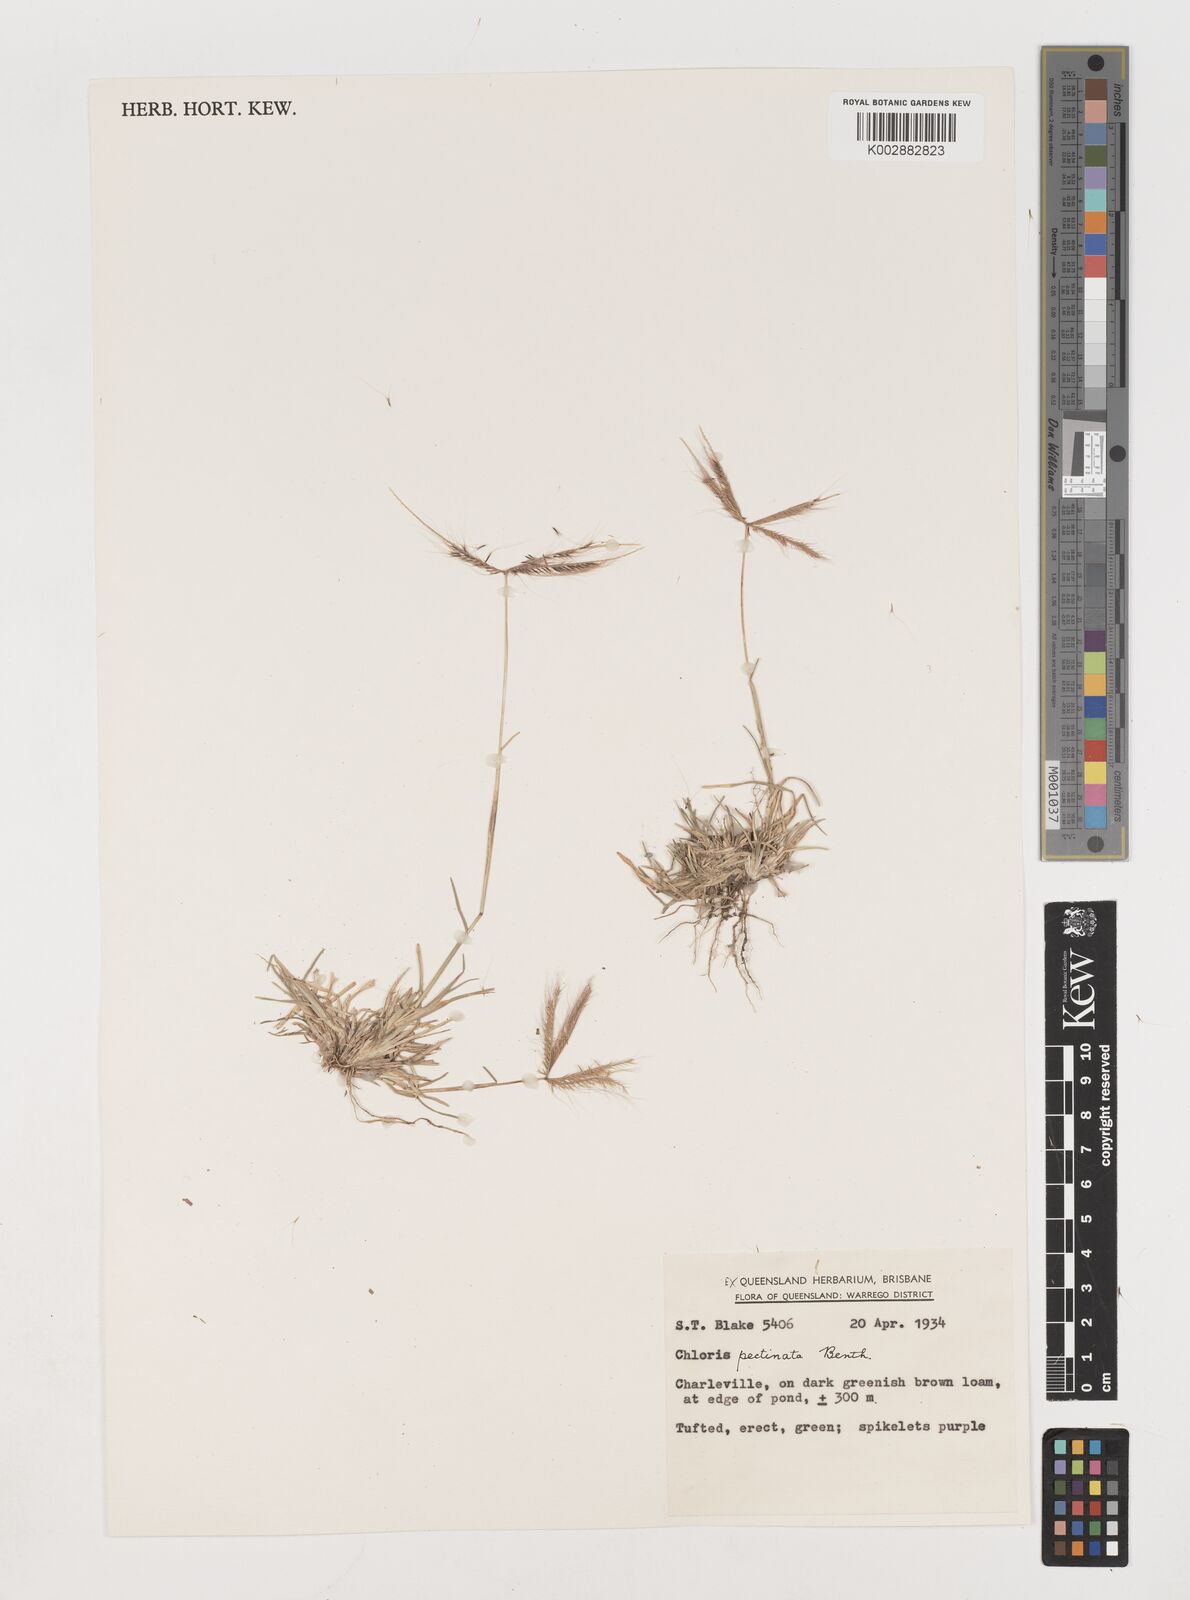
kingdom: Plantae
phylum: Tracheophyta
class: Liliopsida
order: Poales
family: Poaceae
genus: Chloris
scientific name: Chloris pectinata
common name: Comb windmill grass
